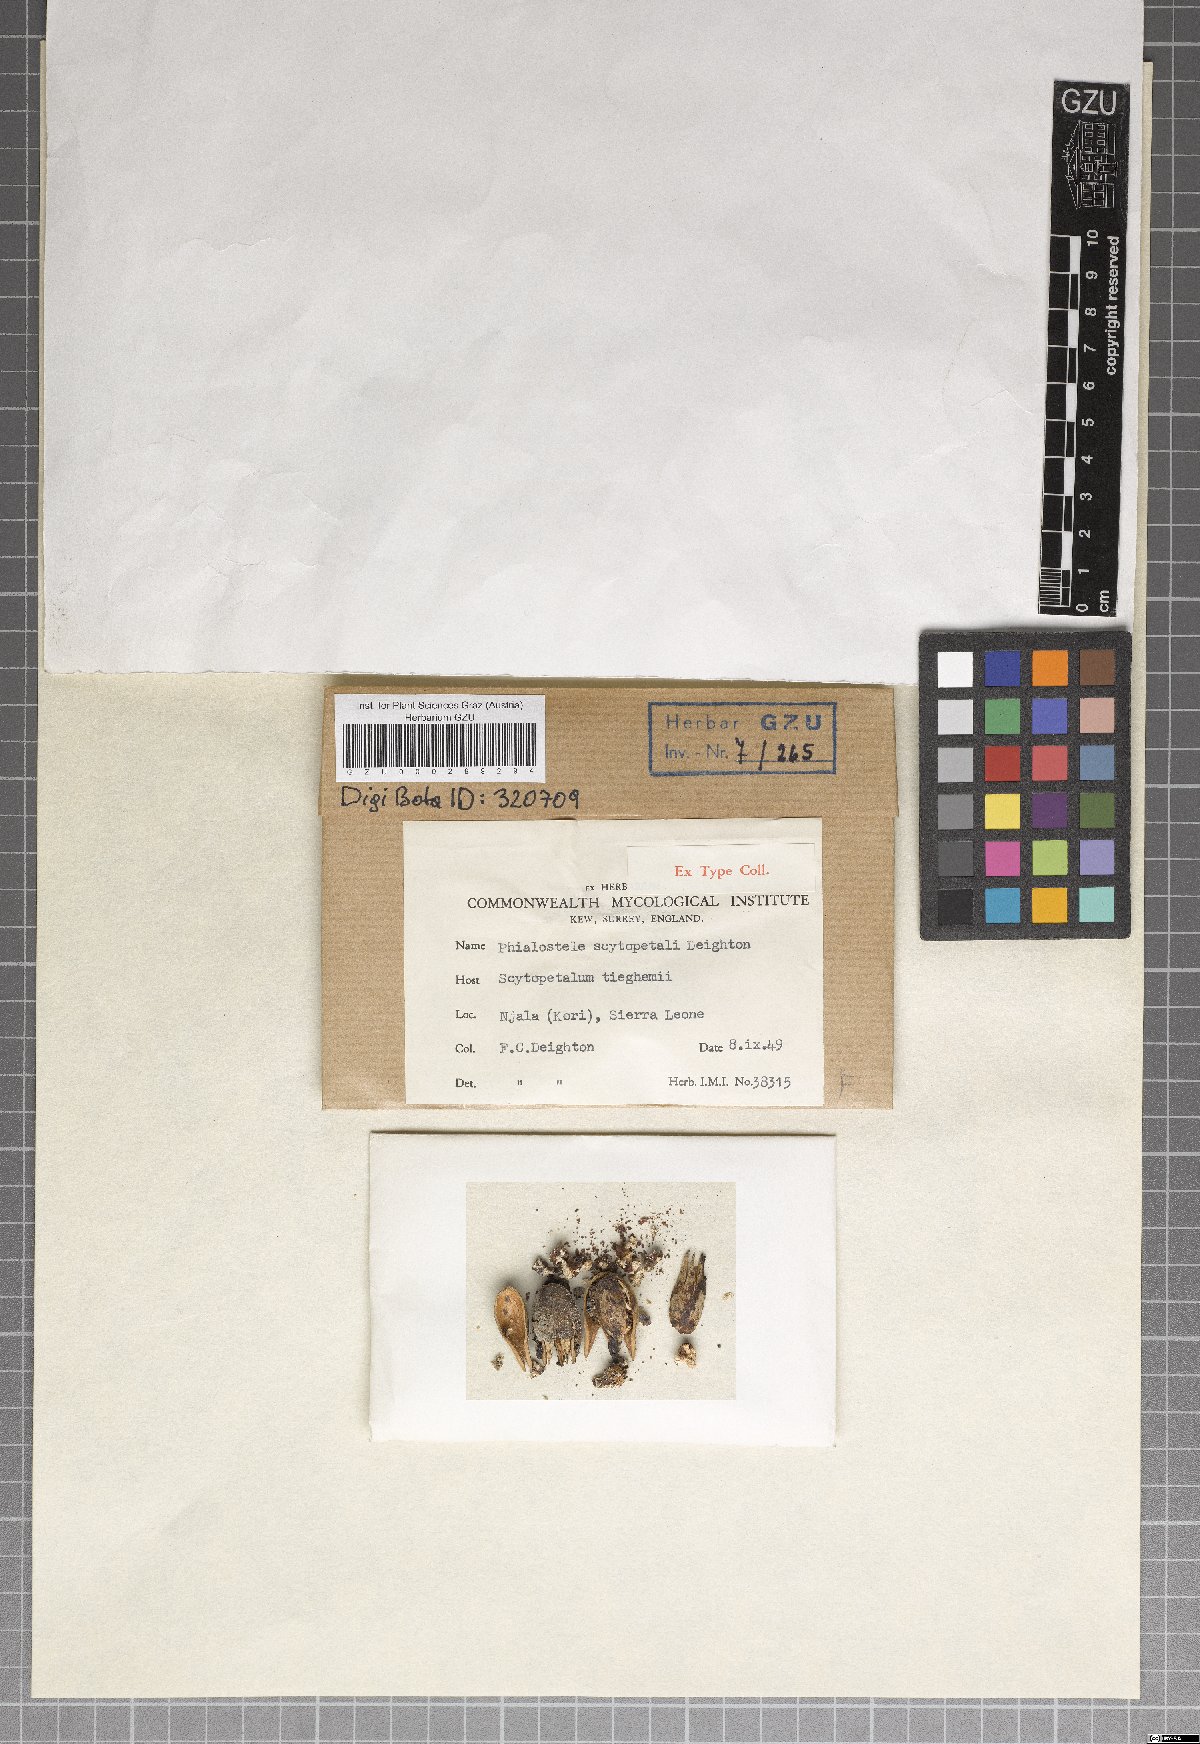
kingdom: Fungi
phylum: Ascomycota
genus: Phialostele
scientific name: Phialostele scytopetali
